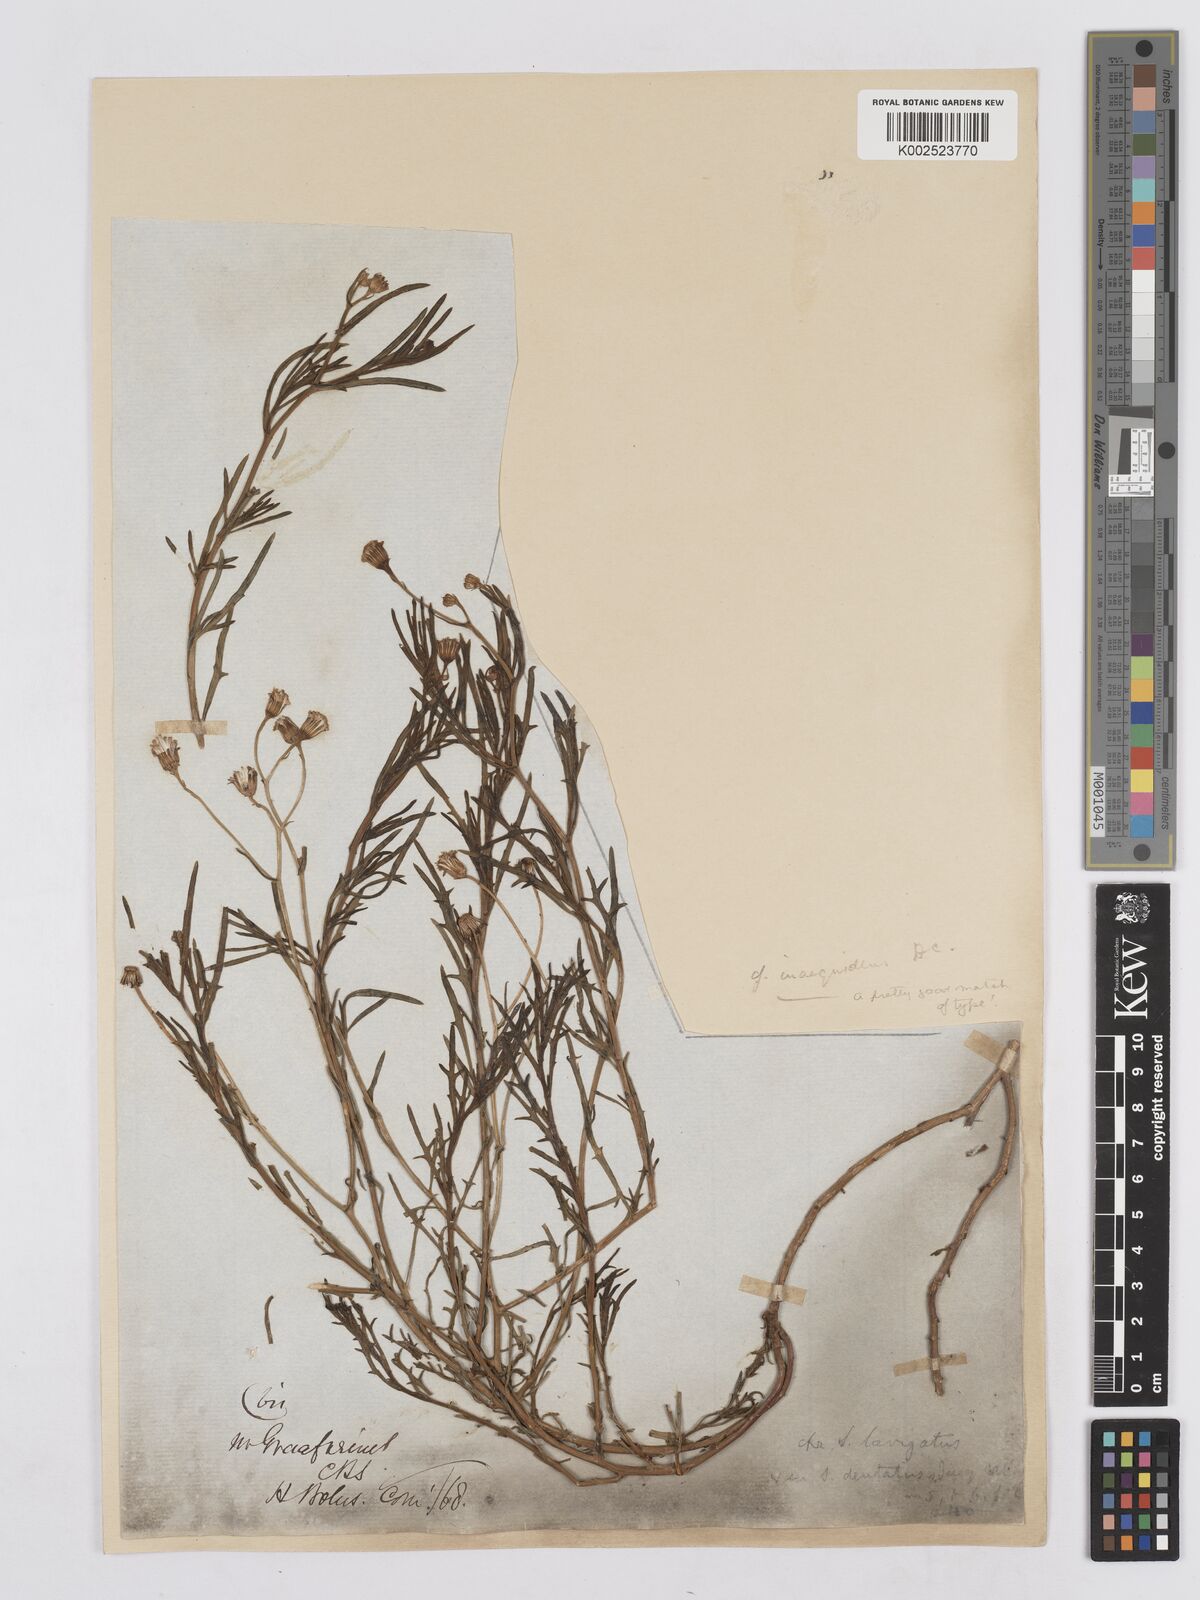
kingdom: Plantae
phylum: Tracheophyta
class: Magnoliopsida
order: Asterales
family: Asteraceae
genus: Senecio
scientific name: Senecio vimineus
